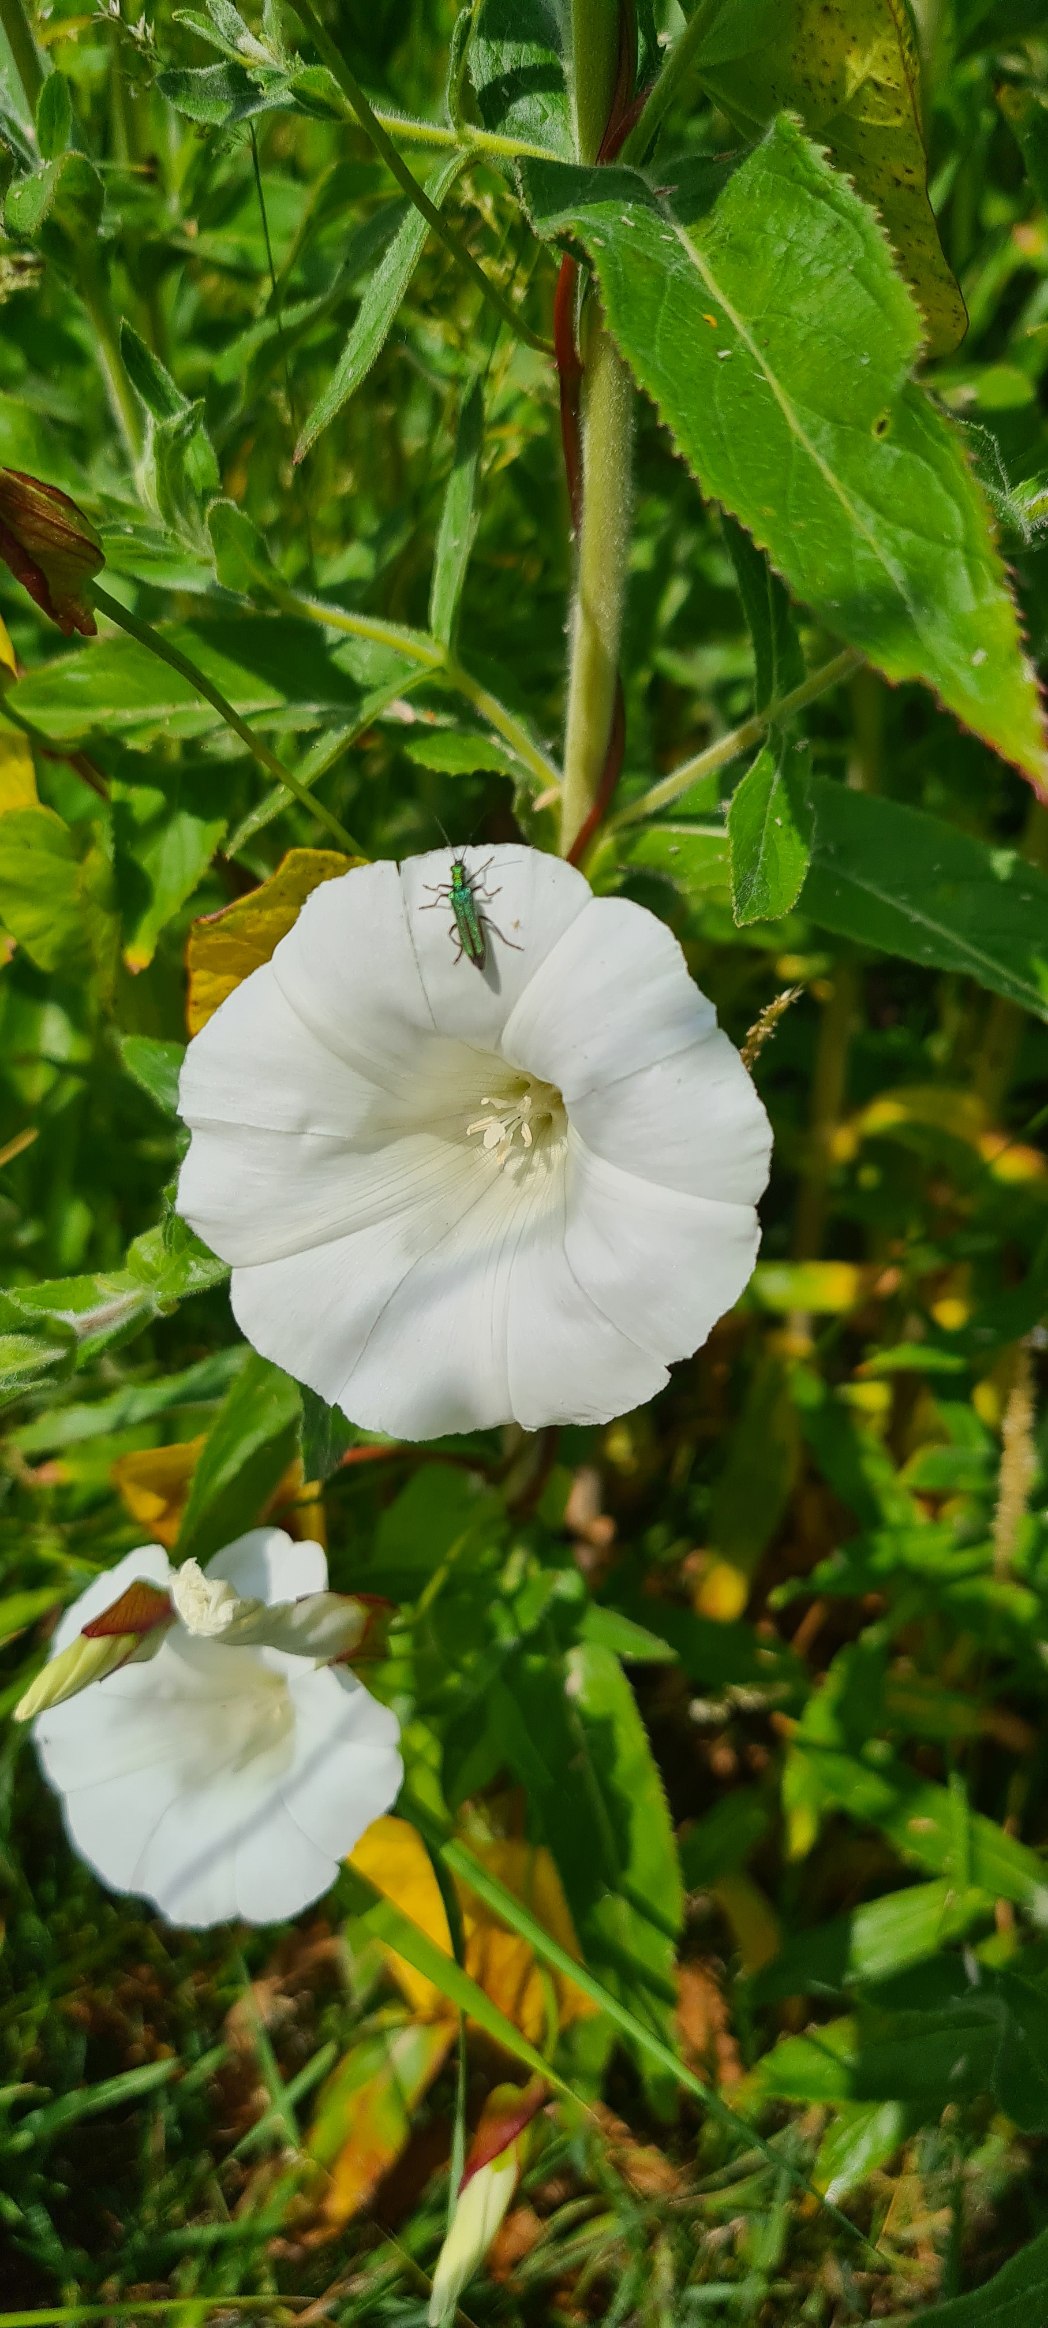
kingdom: Plantae
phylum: Tracheophyta
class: Magnoliopsida
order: Solanales
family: Convolvulaceae
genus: Calystegia
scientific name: Calystegia sepium
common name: Gærde-snerle
